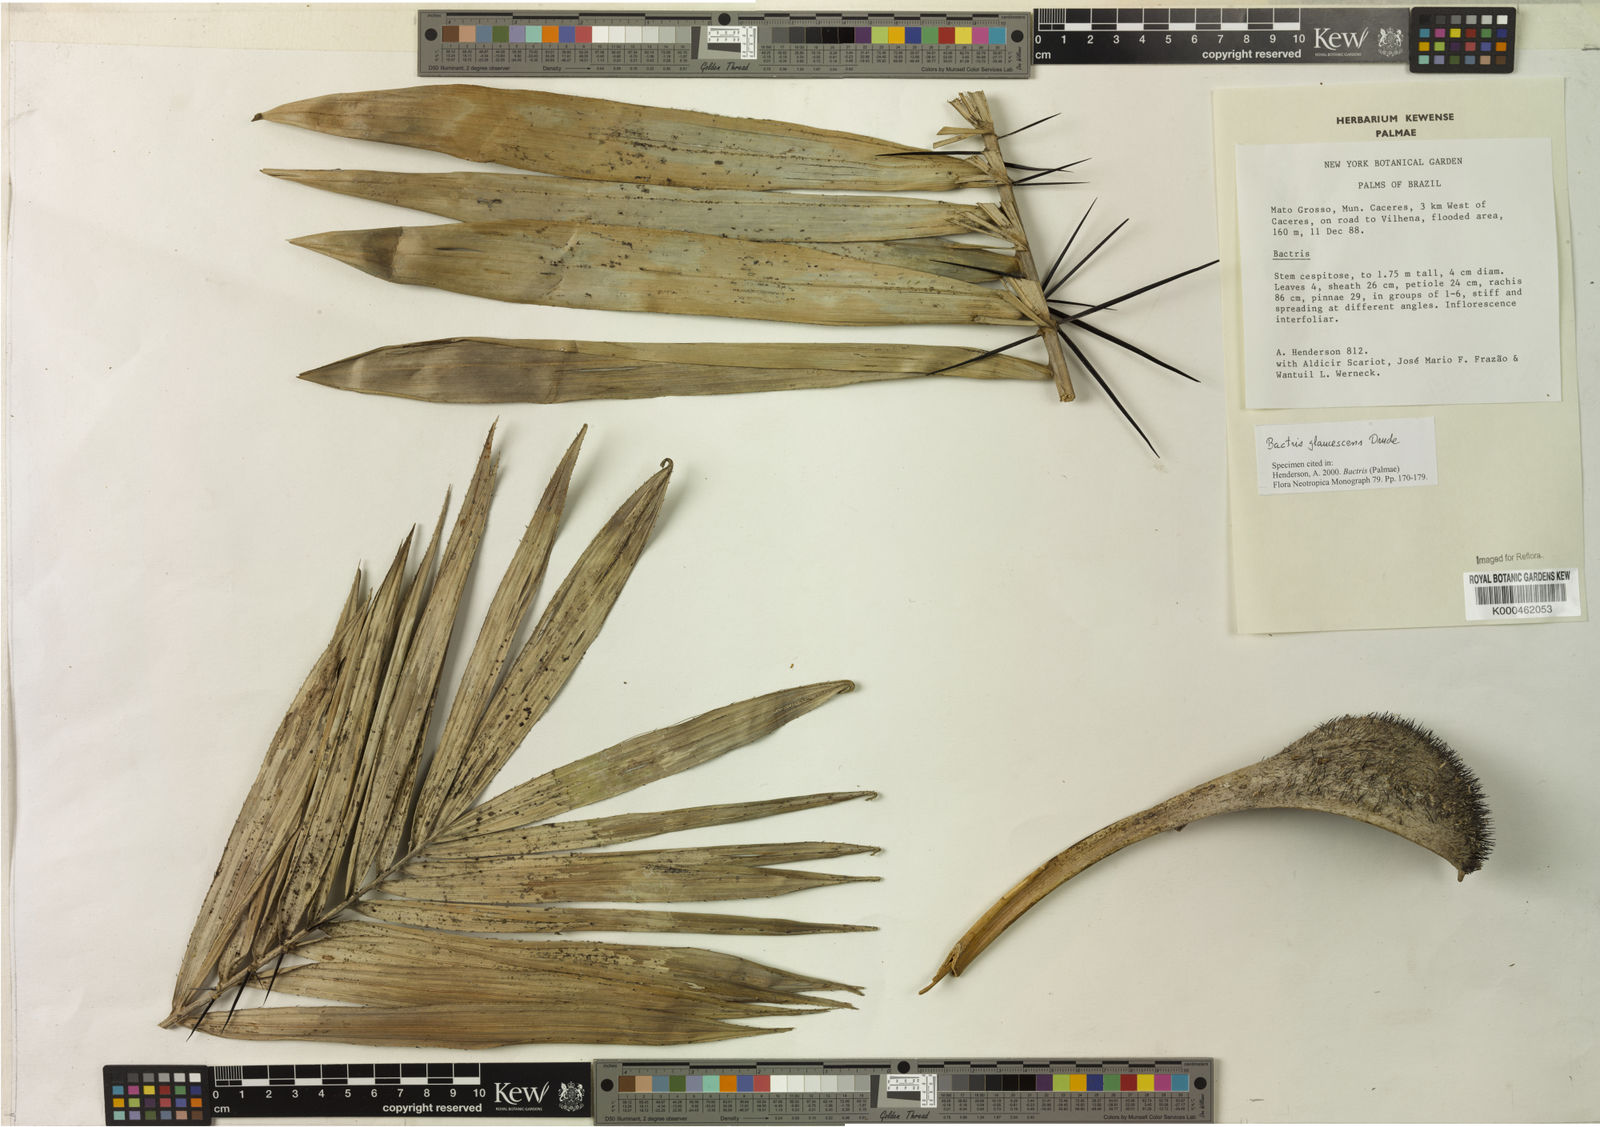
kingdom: Plantae
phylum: Tracheophyta
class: Liliopsida
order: Arecales
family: Arecaceae
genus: Bactris
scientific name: Bactris glaucescens
